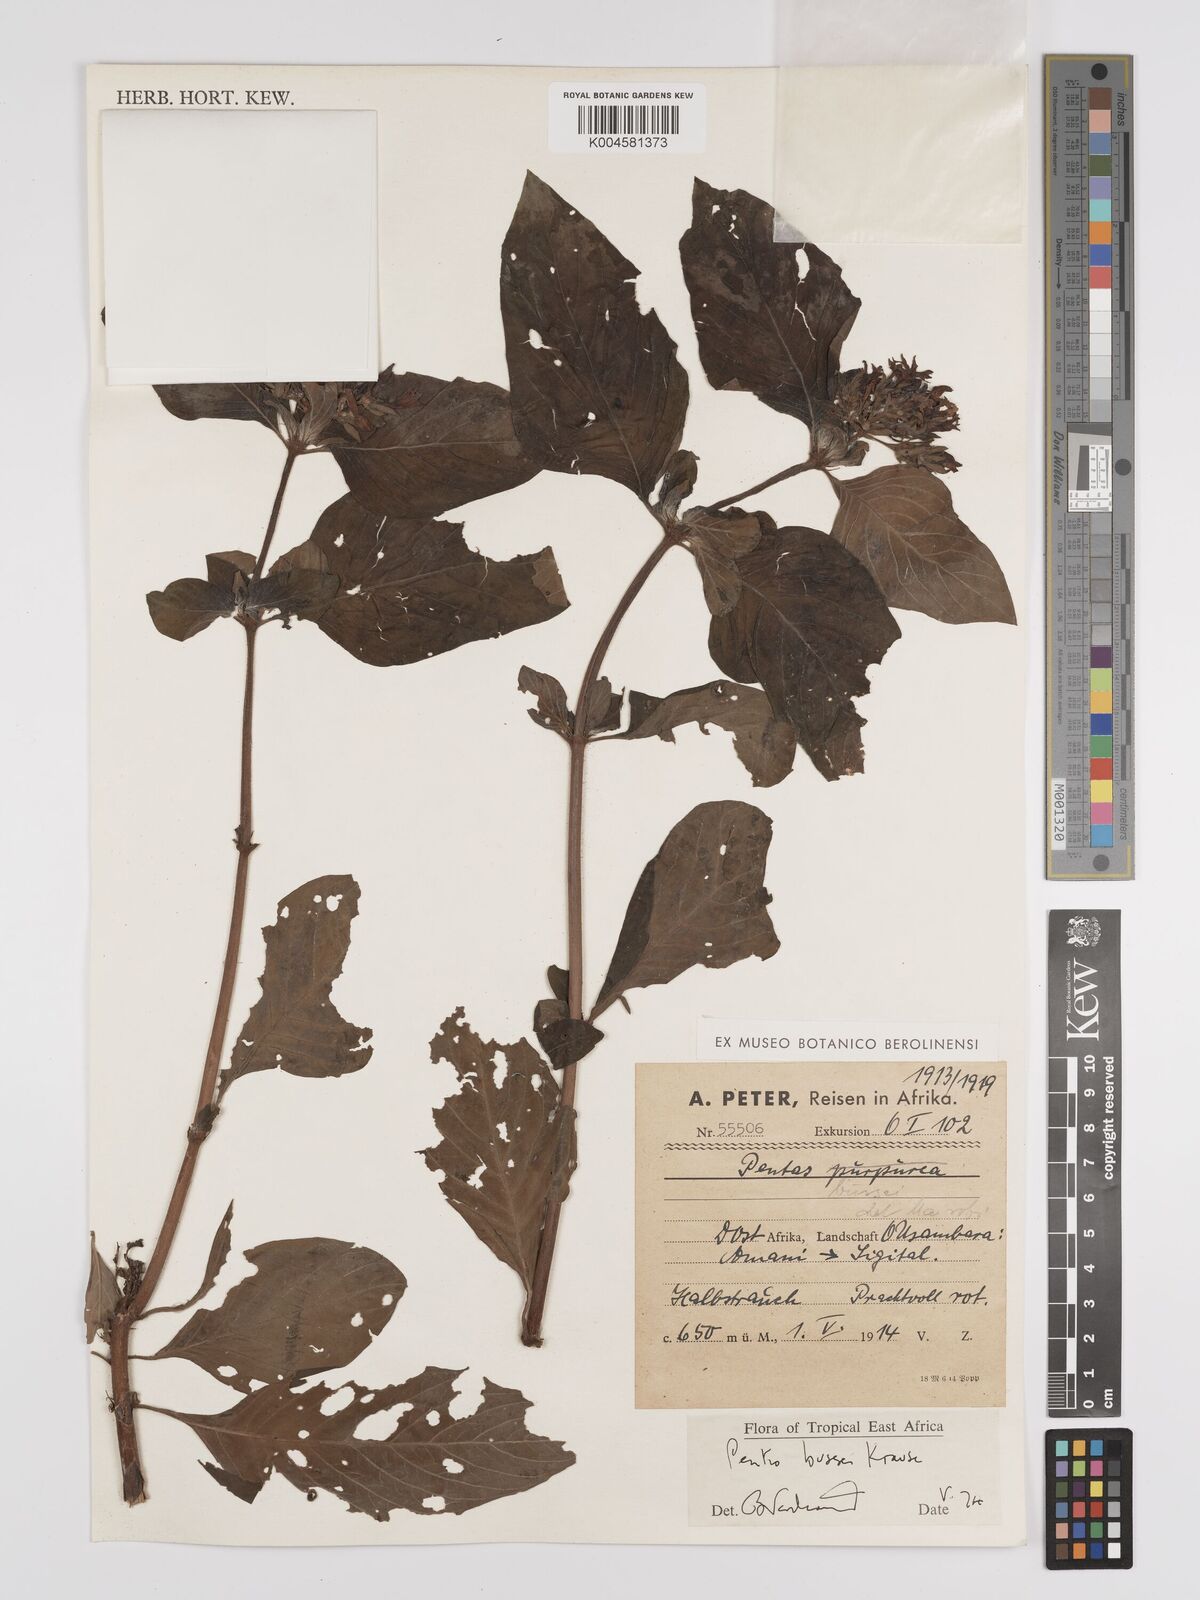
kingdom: Plantae
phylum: Tracheophyta
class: Magnoliopsida
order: Gentianales
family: Rubiaceae
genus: Rhodopentas
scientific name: Rhodopentas bussei
